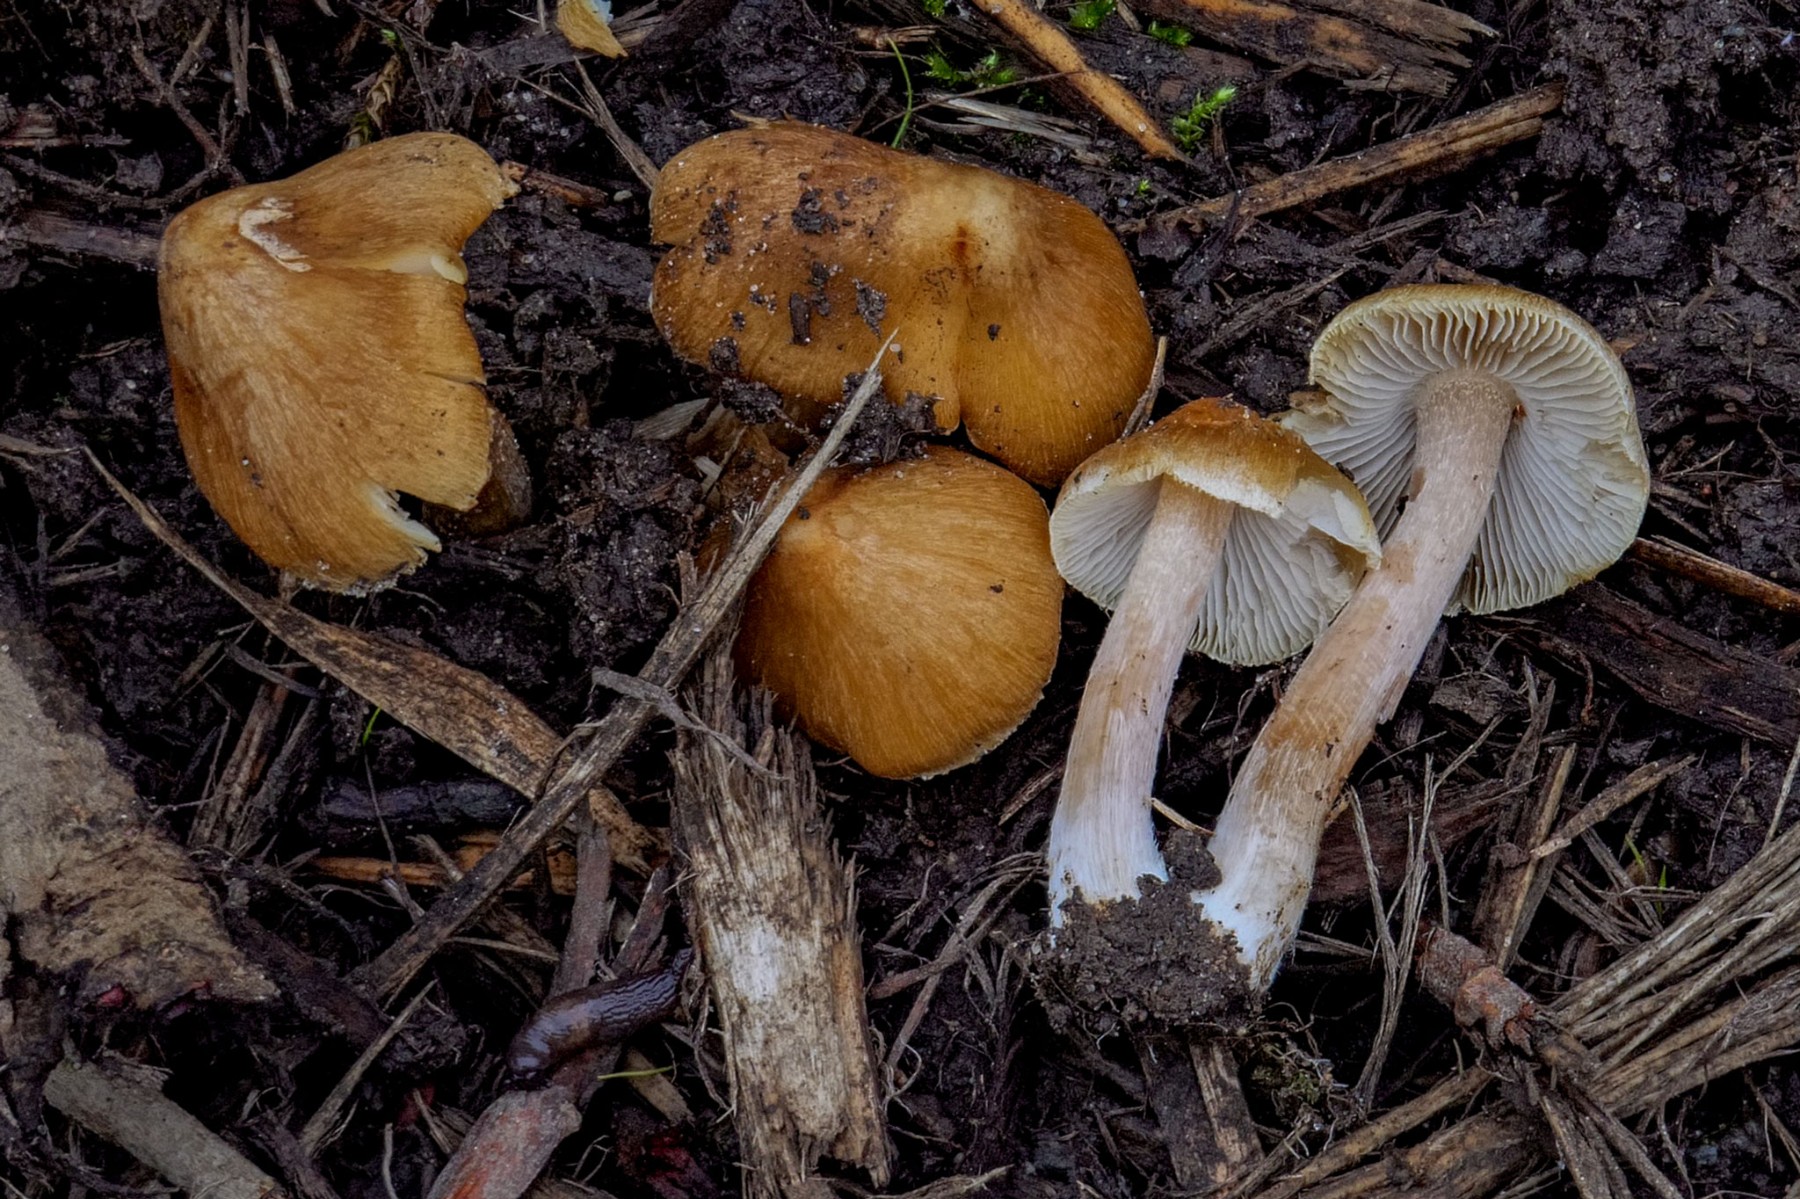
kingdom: Fungi
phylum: Basidiomycota
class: Agaricomycetes
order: Agaricales
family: Inocybaceae
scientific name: Inocybaceae
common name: trævlhatfamilien
